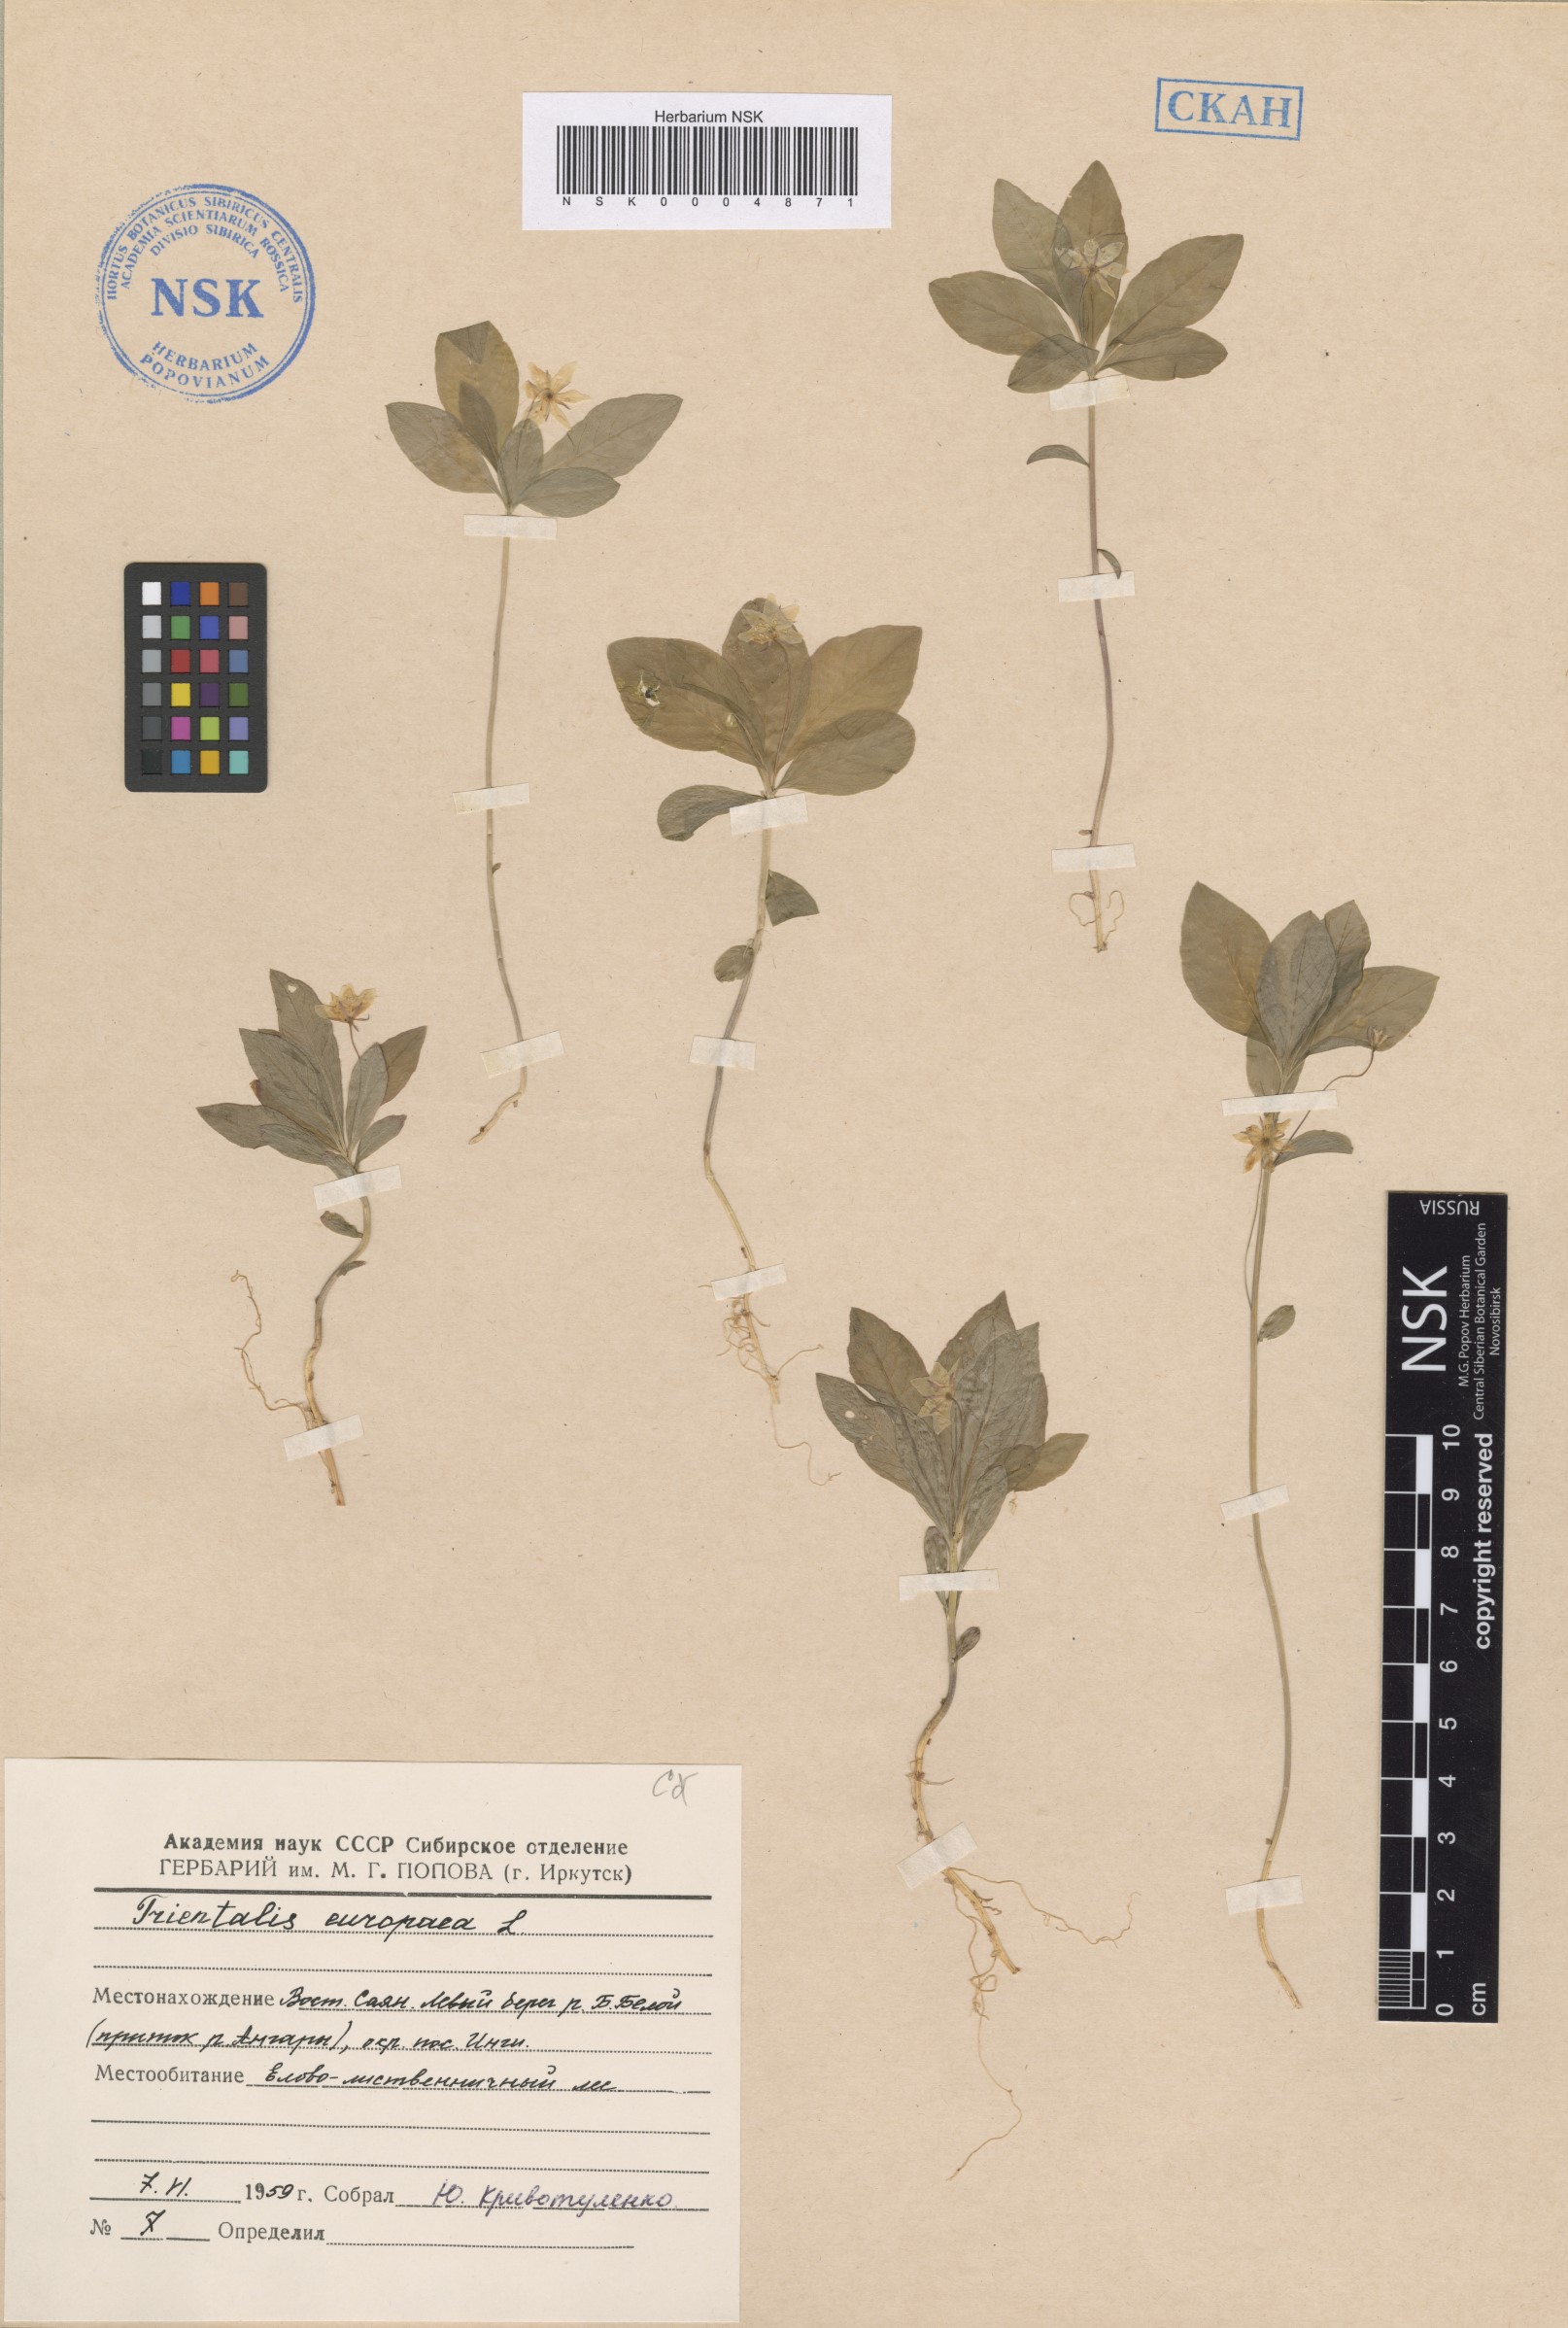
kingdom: Plantae
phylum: Tracheophyta
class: Magnoliopsida
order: Ericales
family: Primulaceae
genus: Lysimachia
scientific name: Lysimachia europaea
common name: Arctic starflower
